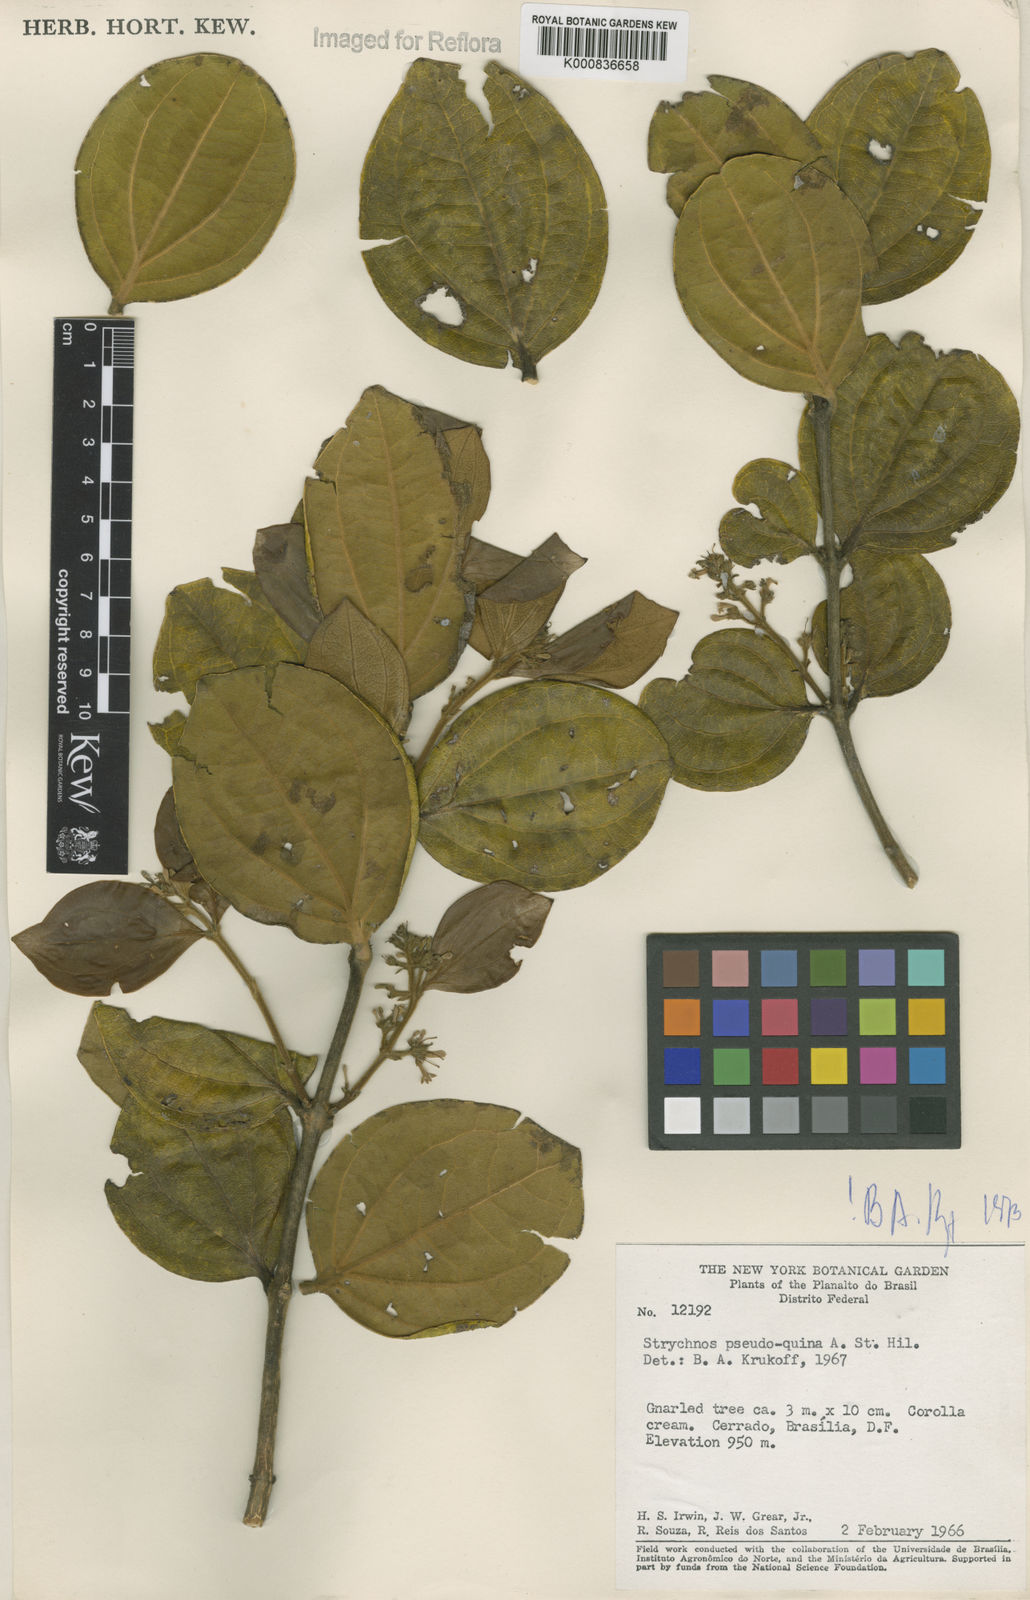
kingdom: Plantae
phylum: Tracheophyta
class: Magnoliopsida
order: Gentianales
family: Loganiaceae
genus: Strychnos
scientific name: Strychnos pseudoquina
